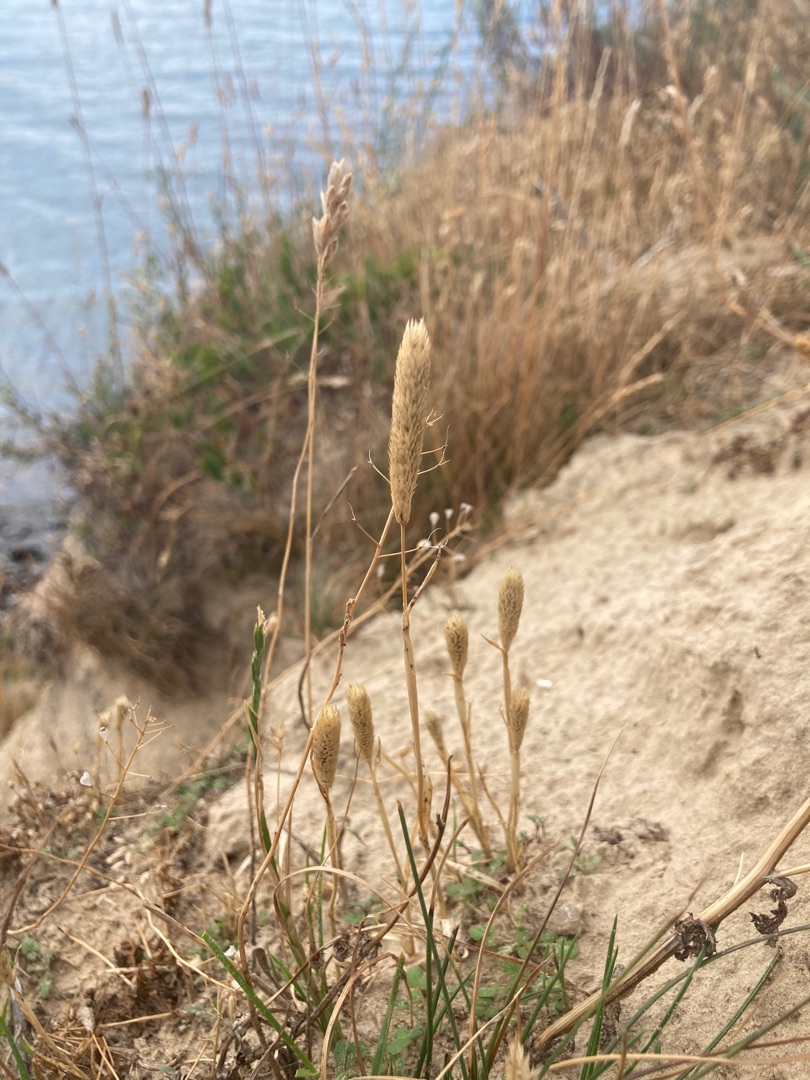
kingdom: Plantae
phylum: Tracheophyta
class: Liliopsida
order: Poales
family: Poaceae
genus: Phleum
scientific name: Phleum arenarium
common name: Sand-rottehale
